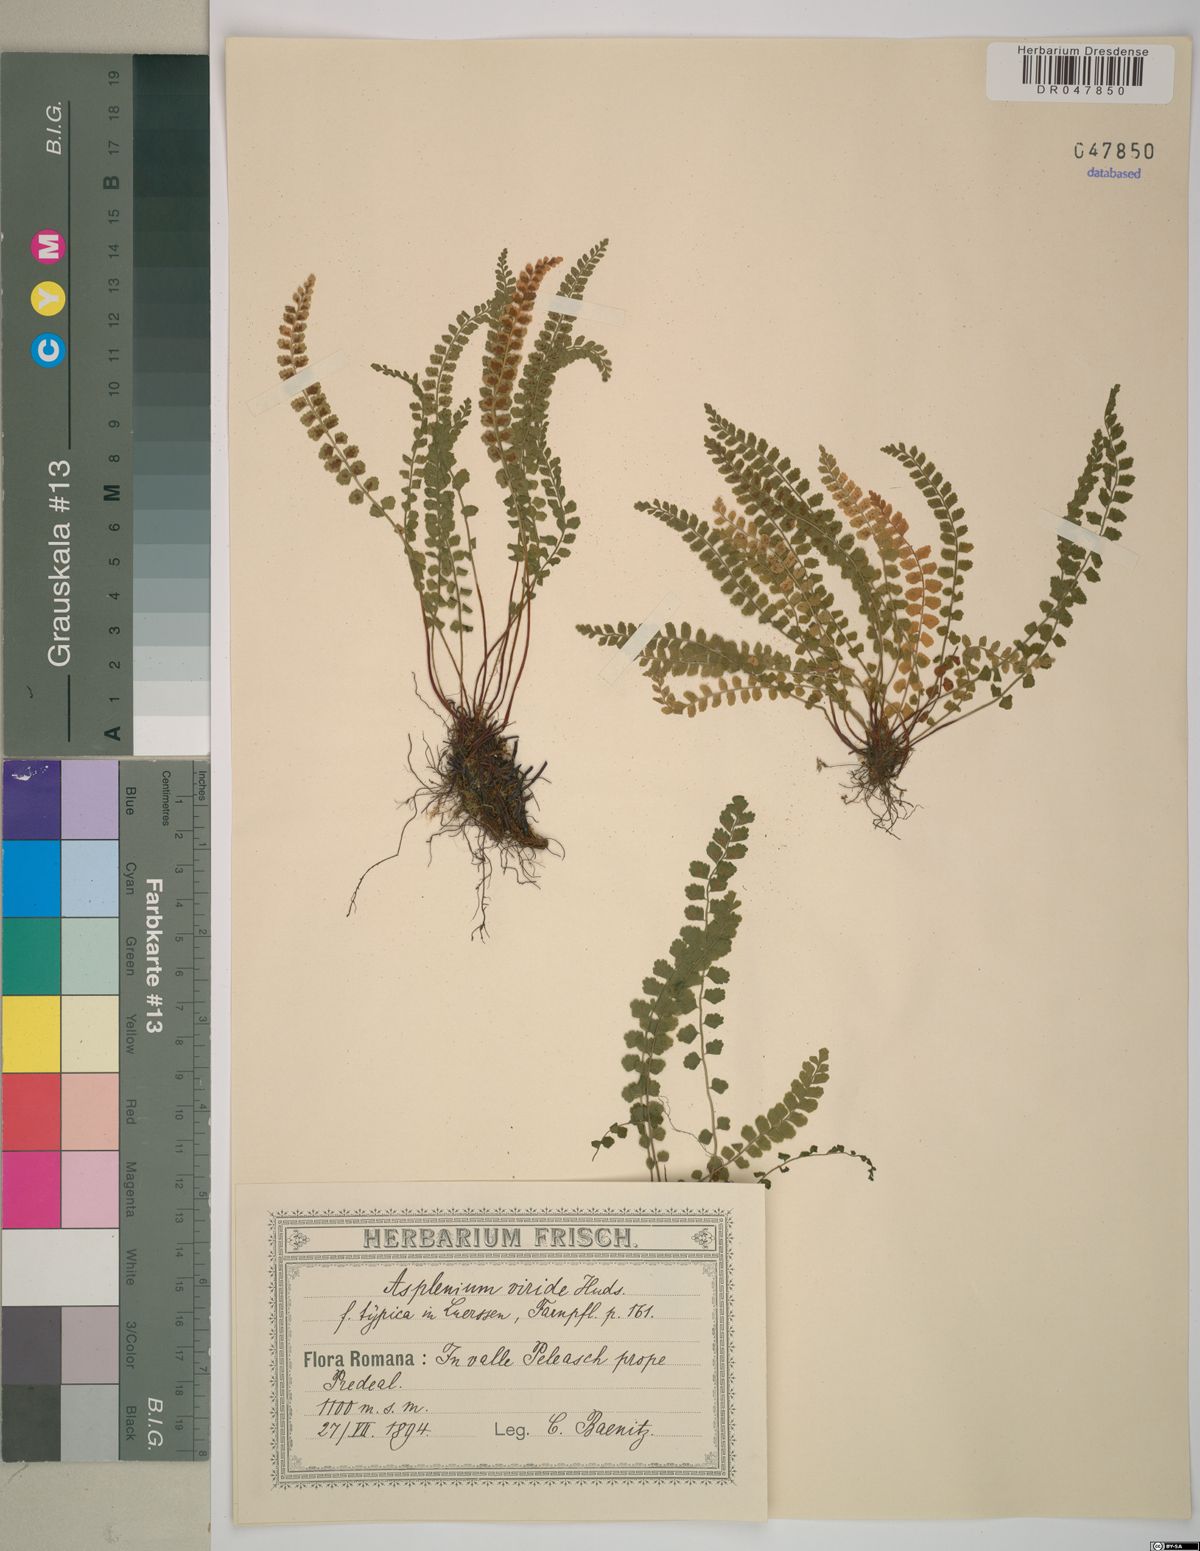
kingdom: Plantae
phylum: Tracheophyta
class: Polypodiopsida
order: Polypodiales
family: Aspleniaceae
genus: Asplenium
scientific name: Asplenium viride
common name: Green spleenwort
